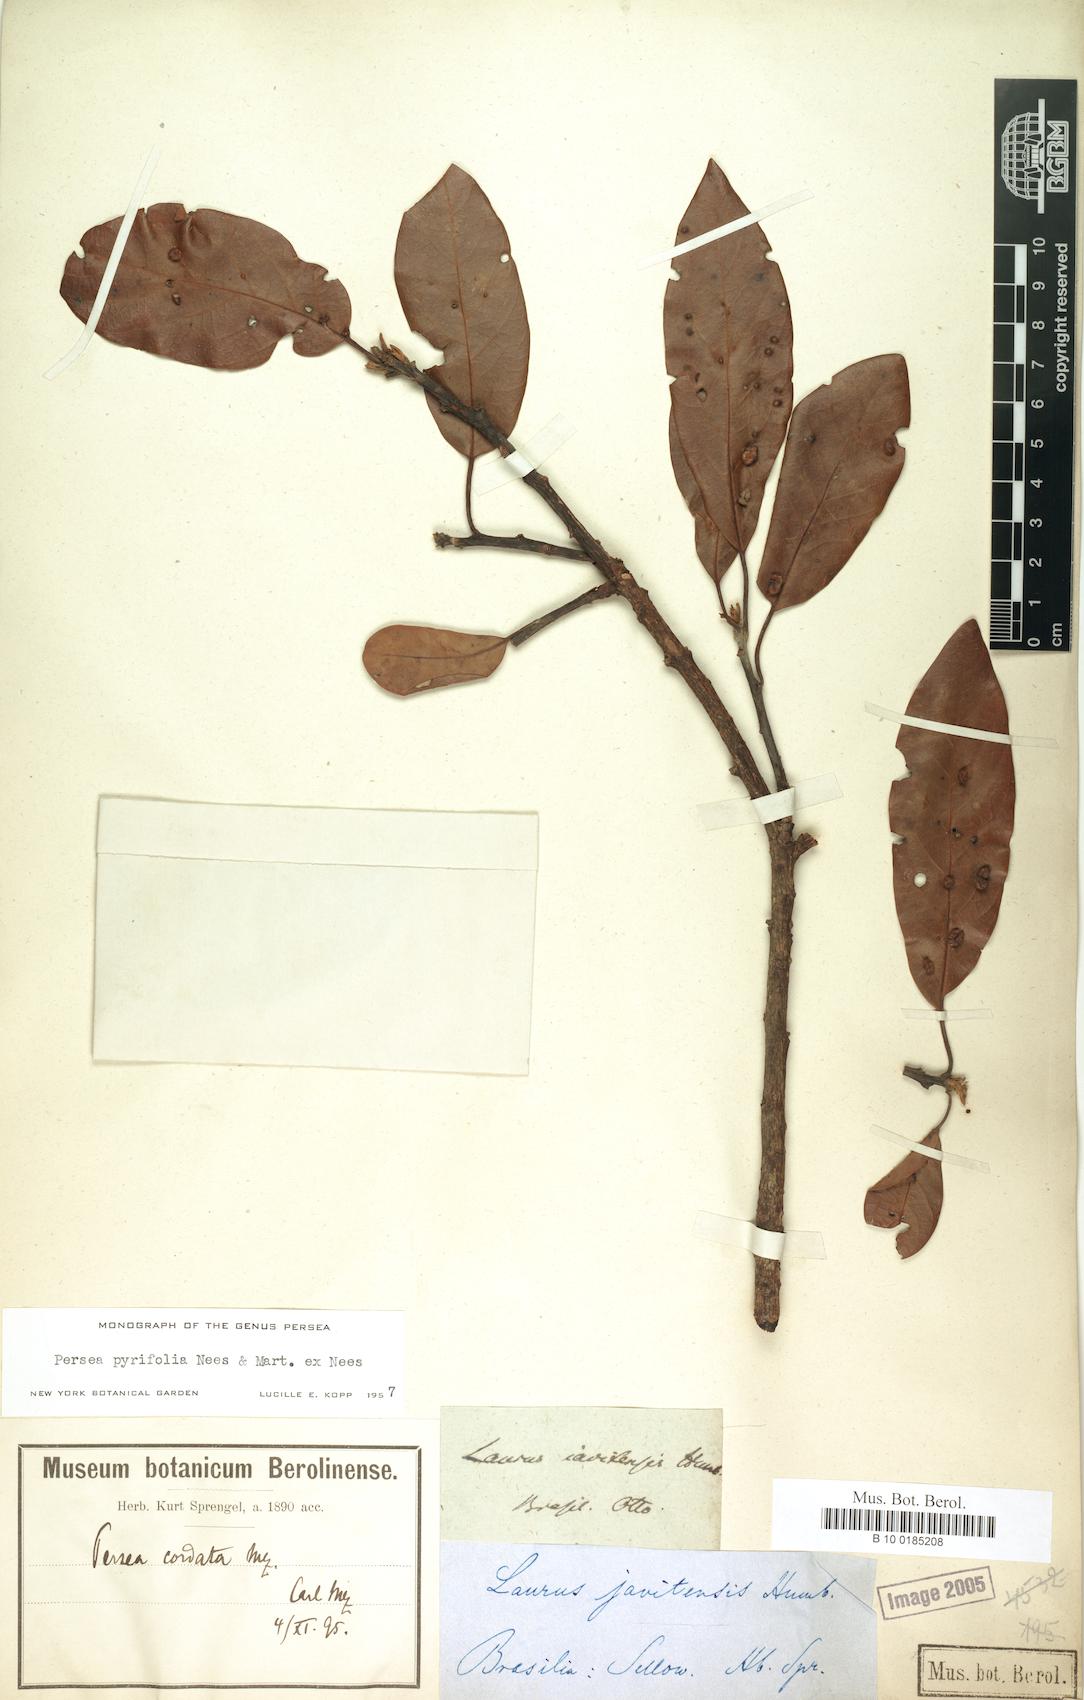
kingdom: Plantae
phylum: Tracheophyta
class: Magnoliopsida
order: Laurales
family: Lauraceae
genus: Persea
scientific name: Persea pyrifolia
